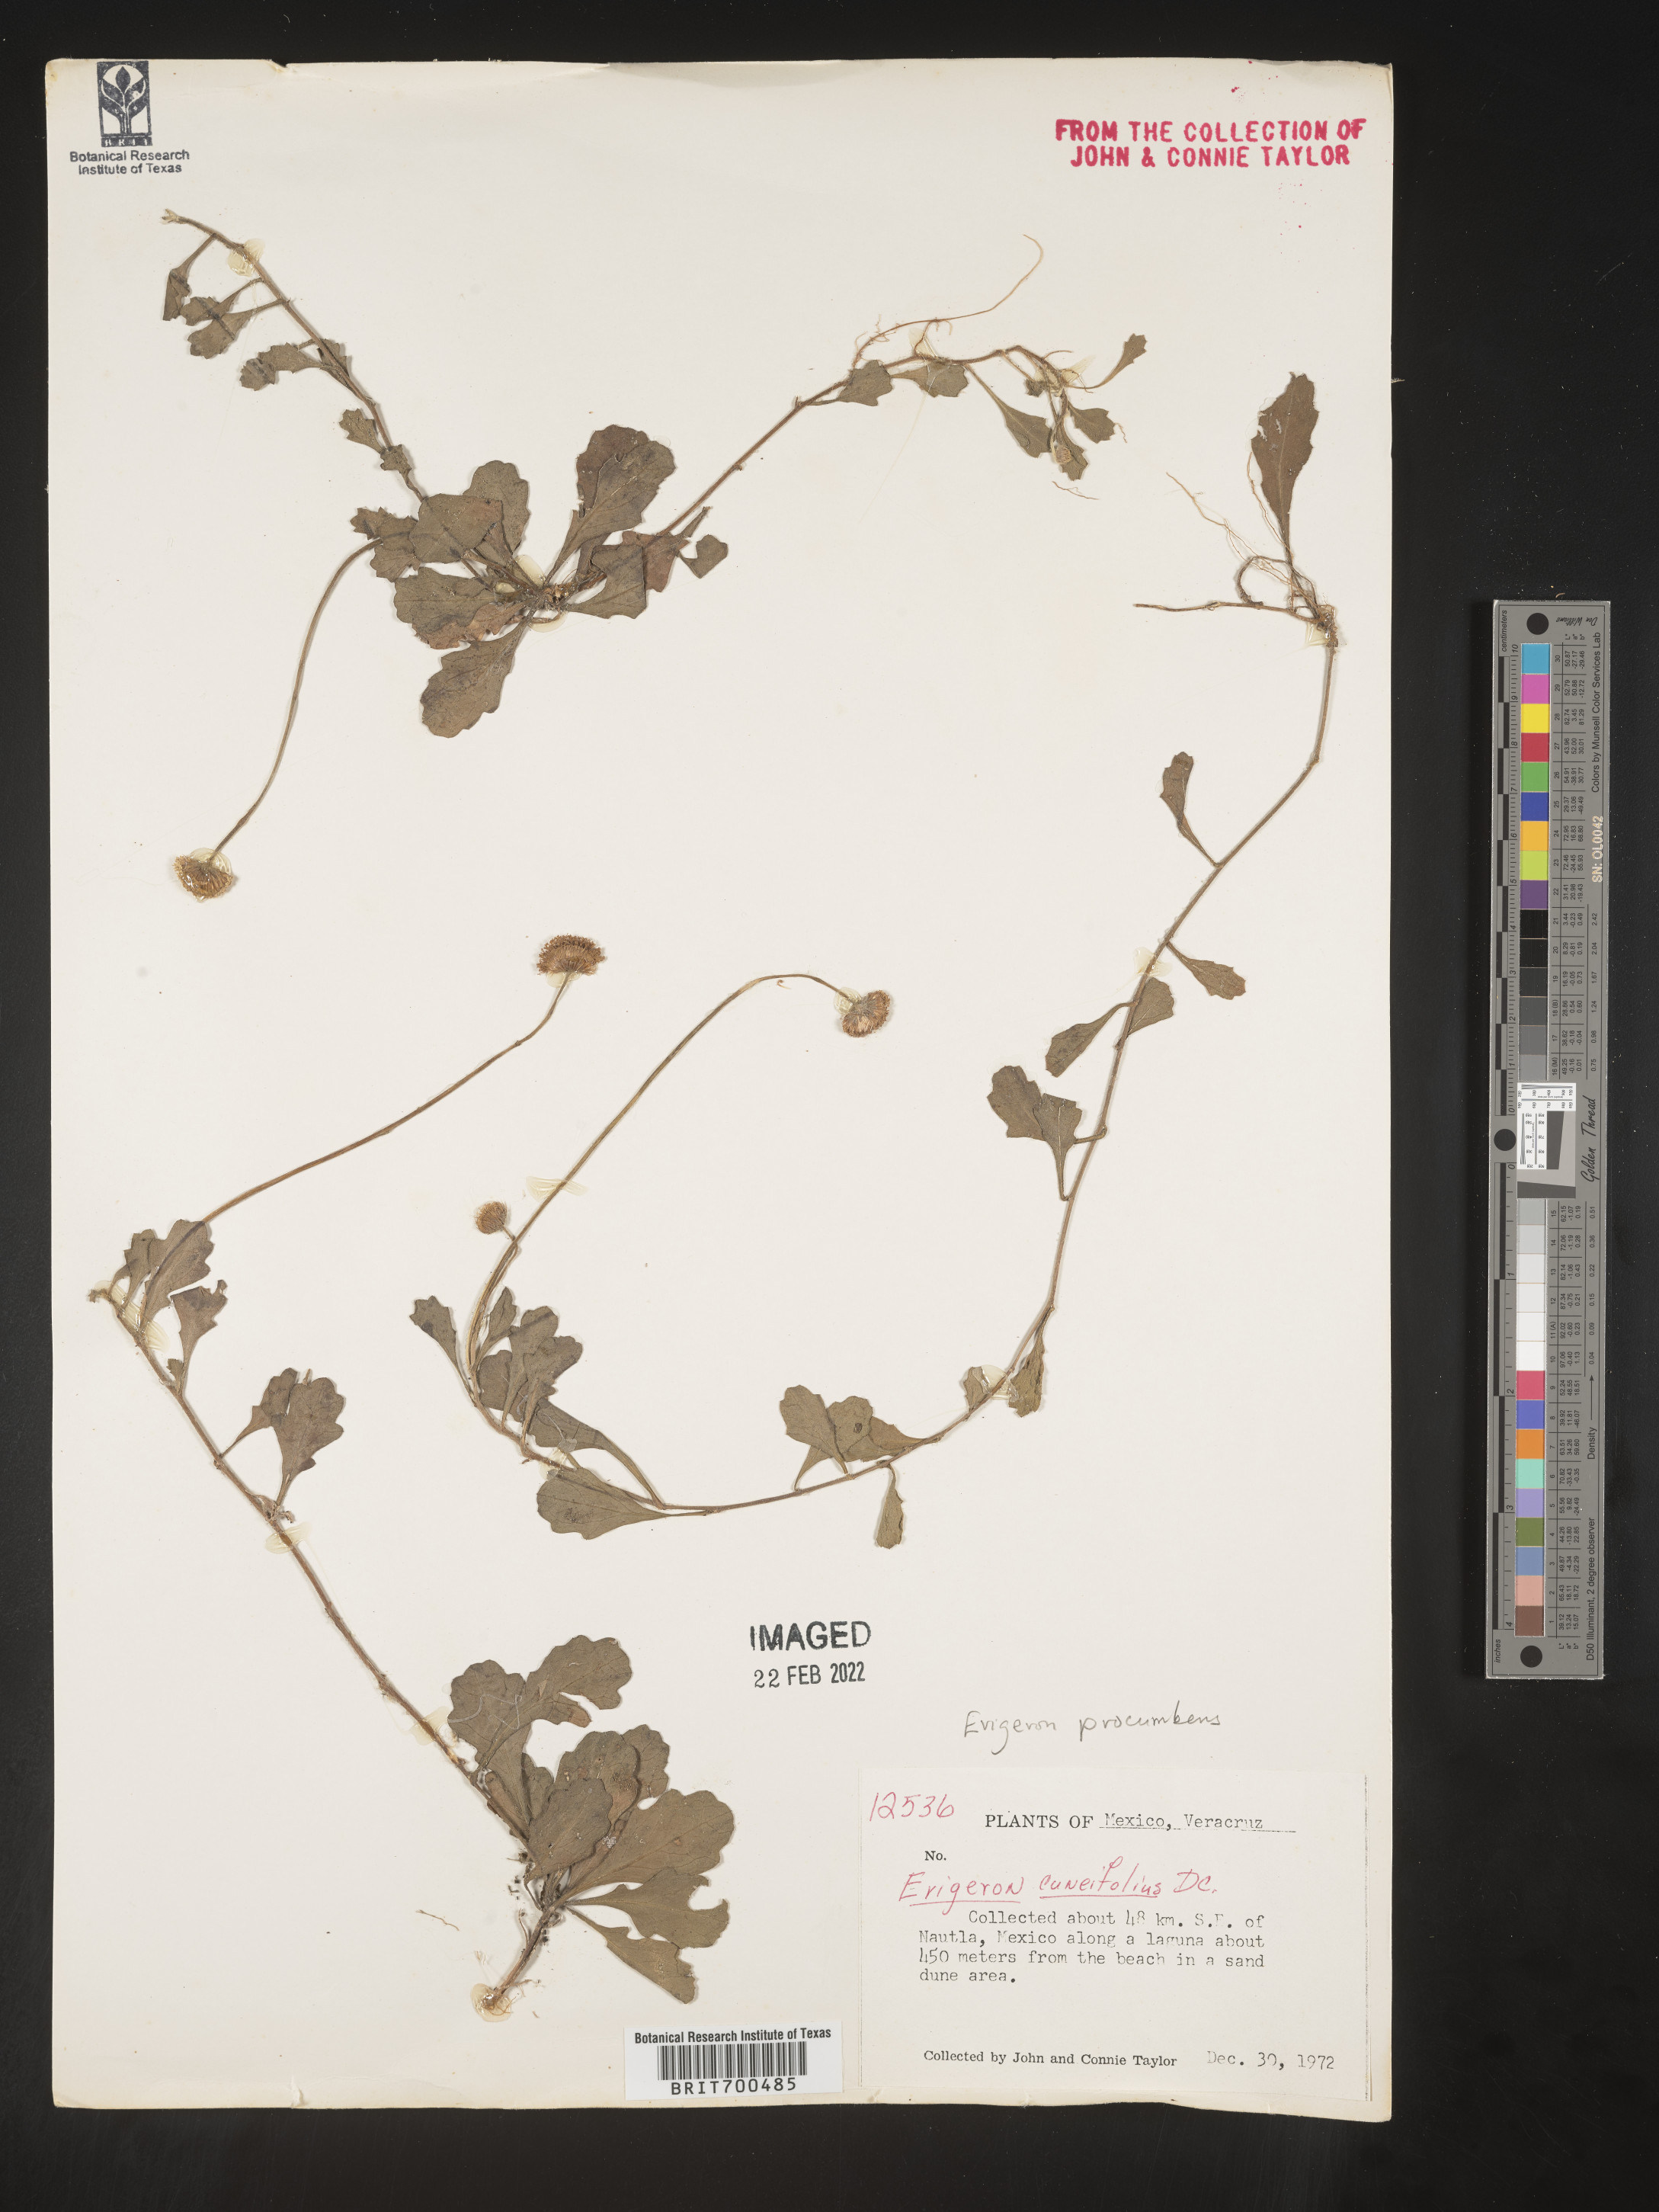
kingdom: Plantae
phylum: Tracheophyta
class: Magnoliopsida
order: Asterales
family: Asteraceae
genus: Erigeron
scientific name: Erigeron
